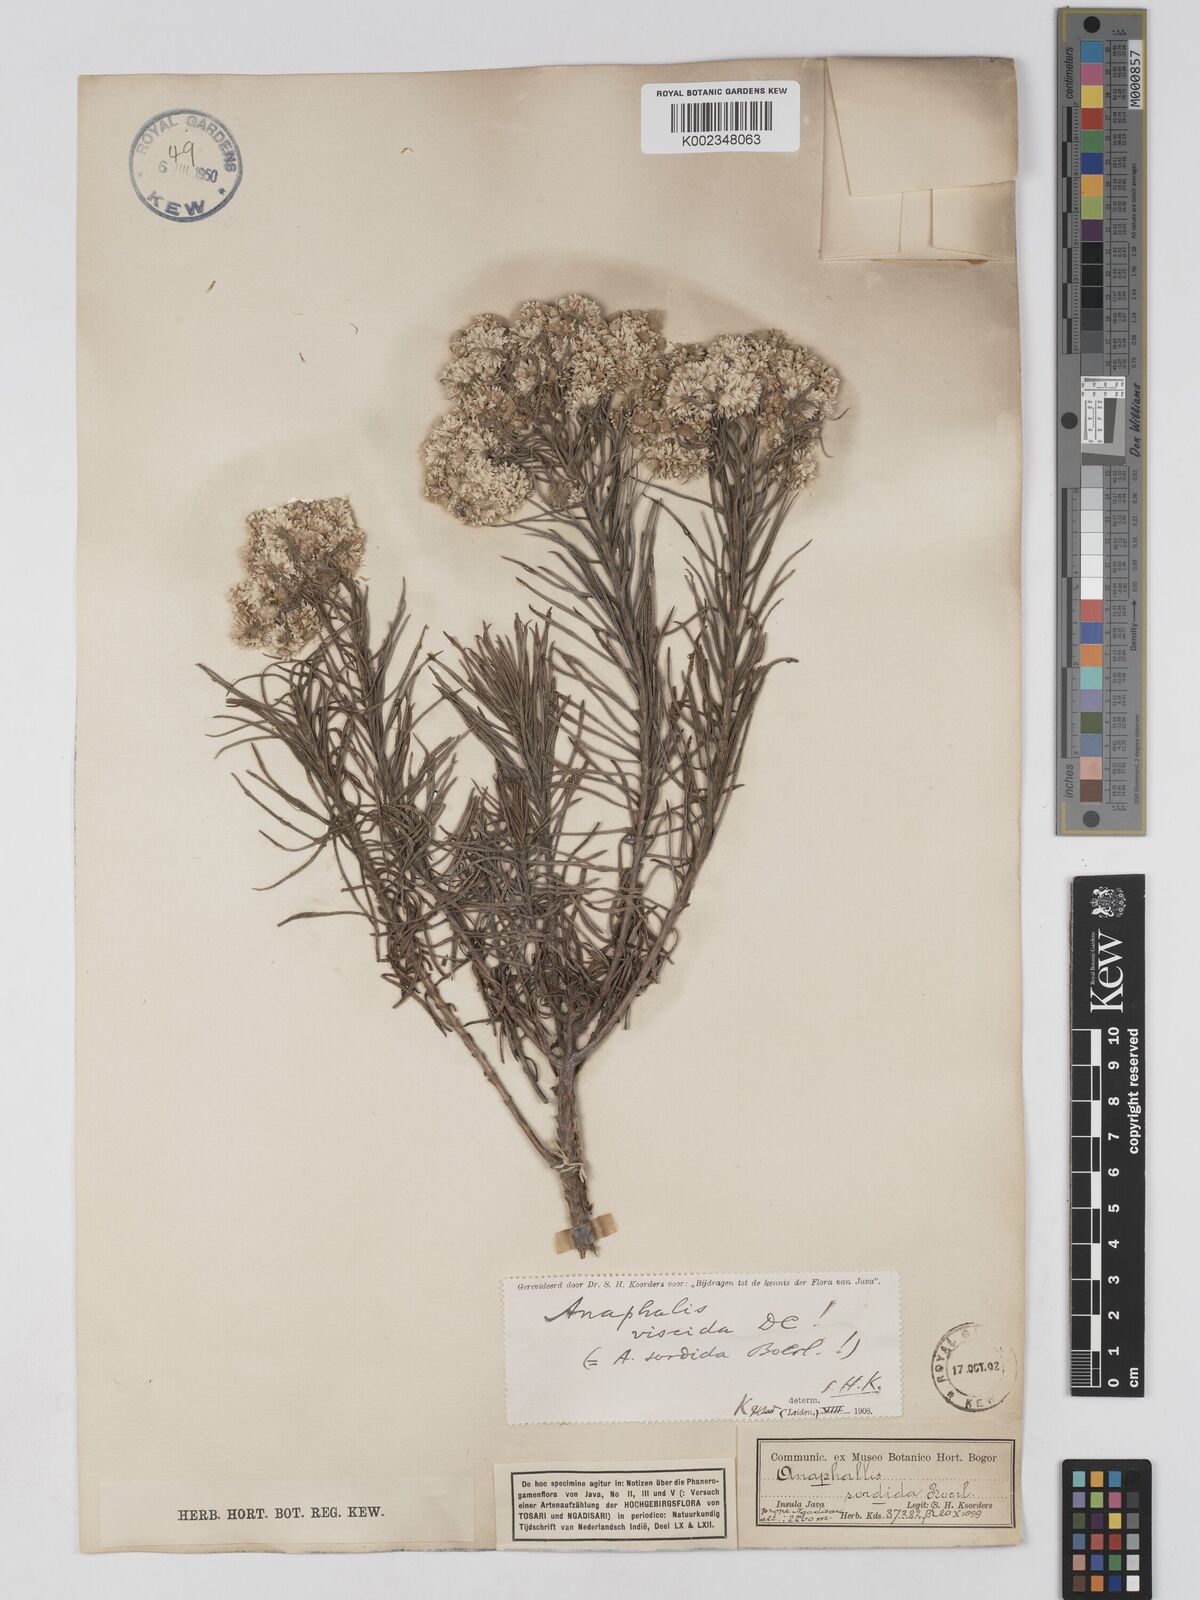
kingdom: Plantae
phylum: Tracheophyta
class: Magnoliopsida
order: Asterales
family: Asteraceae
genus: Anaphalis
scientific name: Anaphalis viscida
